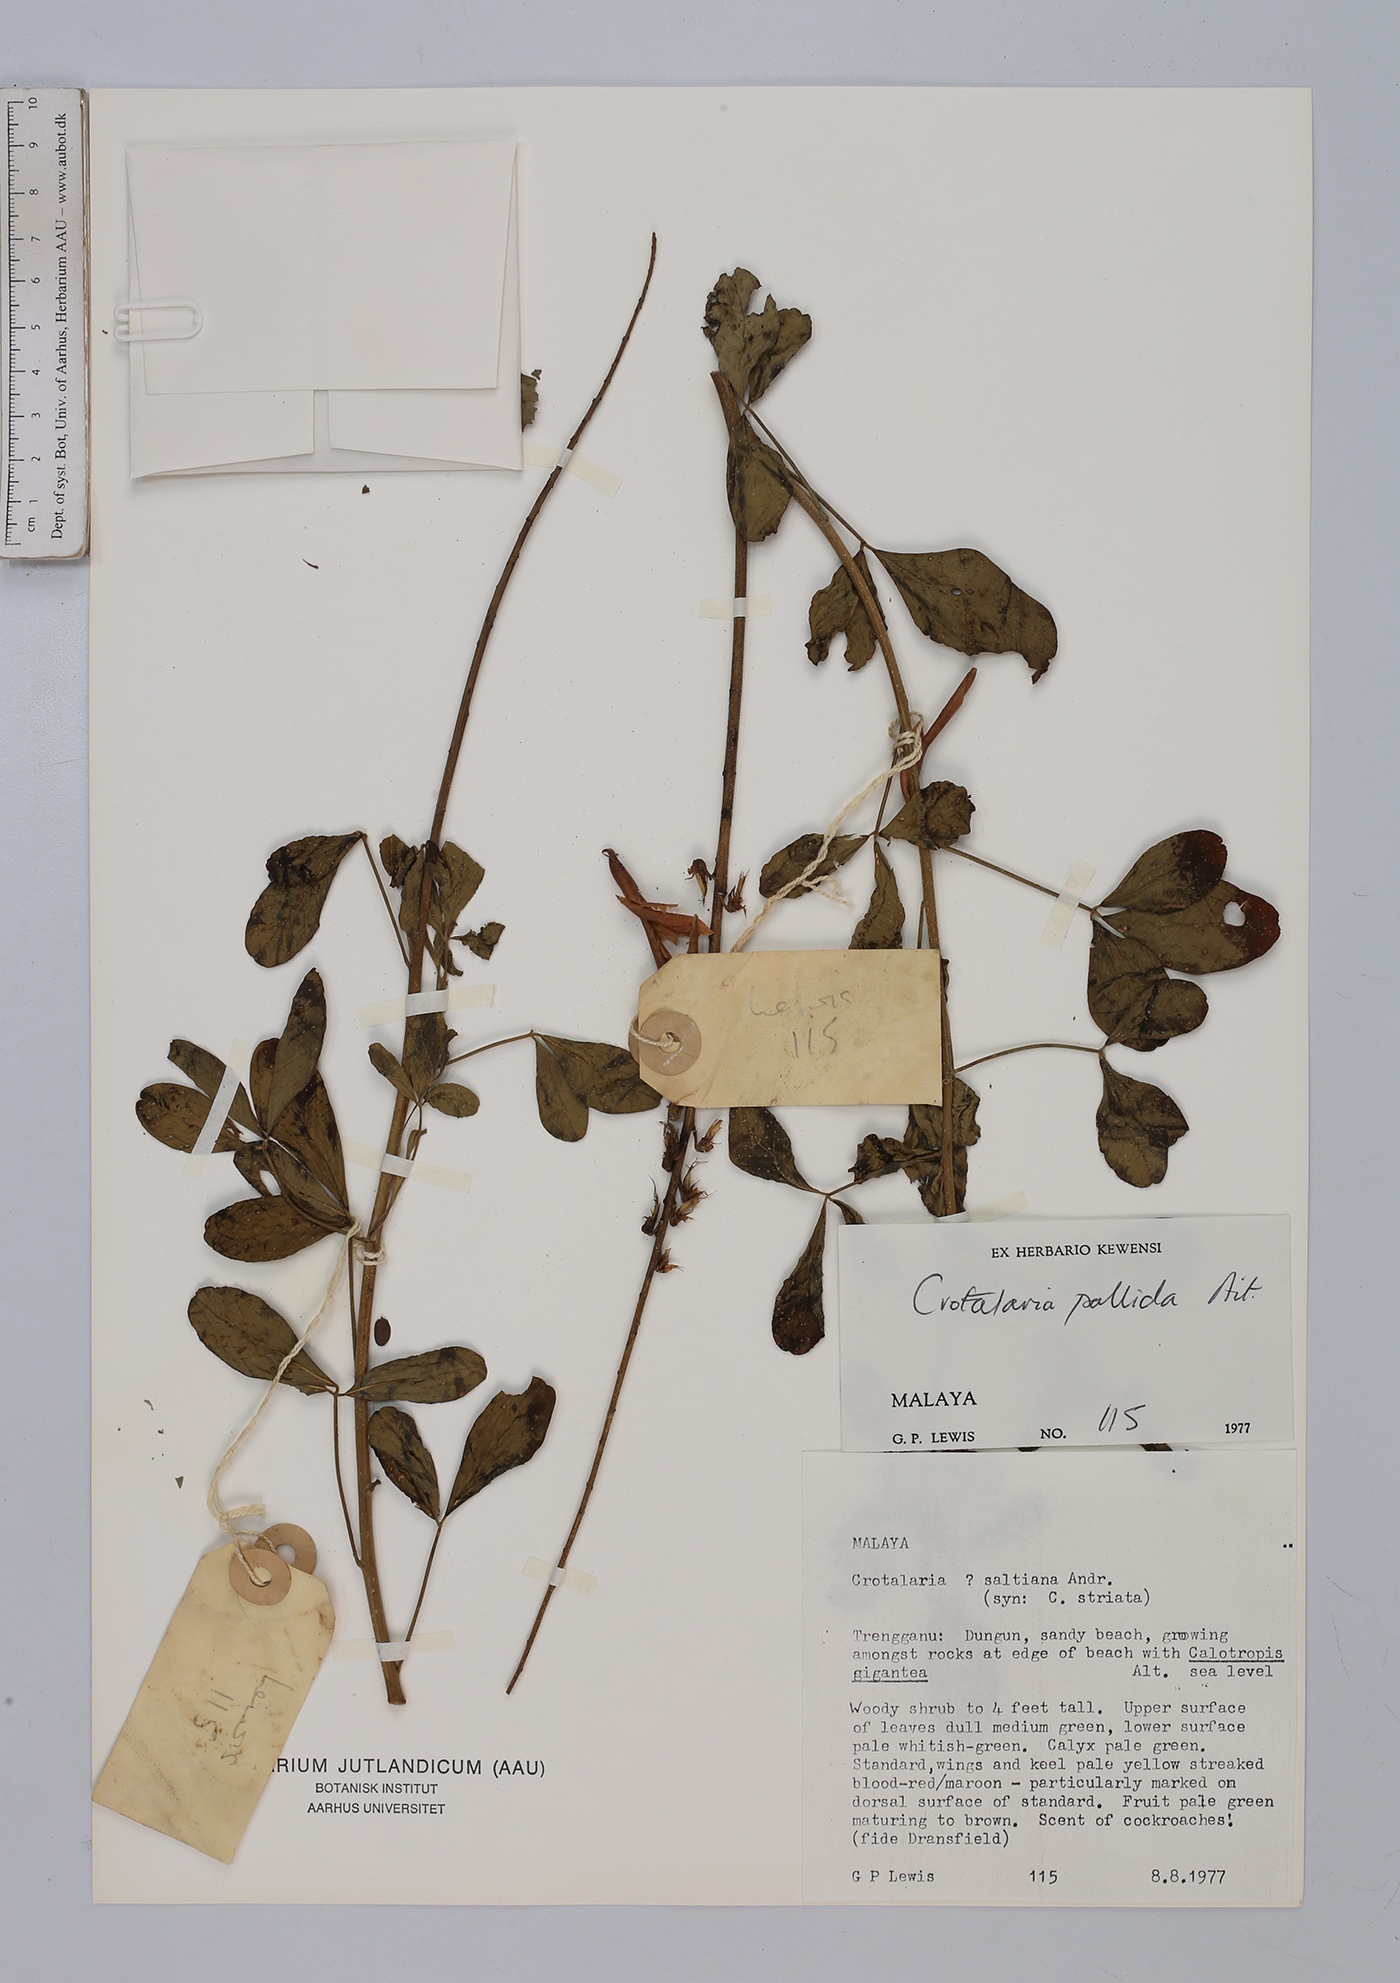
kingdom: Plantae
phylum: Tracheophyta
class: Magnoliopsida
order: Fabales
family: Fabaceae
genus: Crotalaria
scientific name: Crotalaria pallida
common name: Smooth rattlebox
